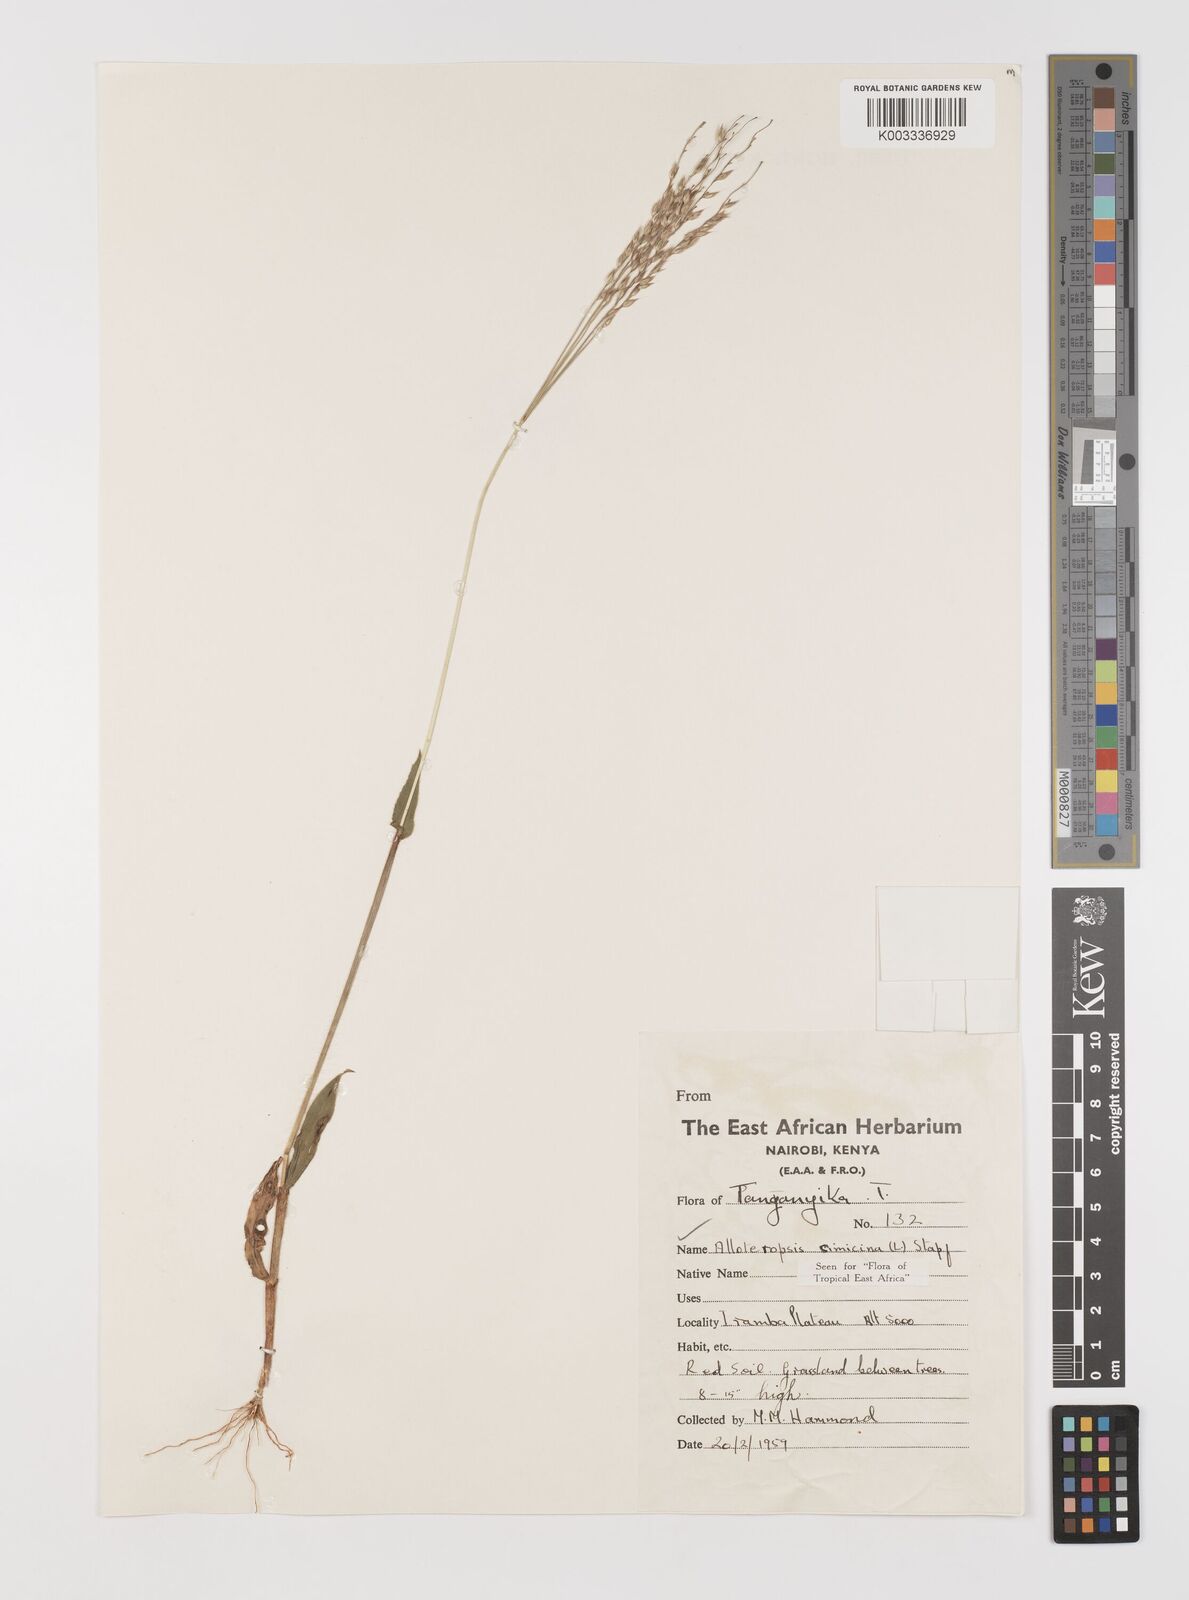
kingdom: Plantae
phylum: Tracheophyta
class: Liliopsida
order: Poales
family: Poaceae
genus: Alloteropsis
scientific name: Alloteropsis cimicina
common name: Summergrass
